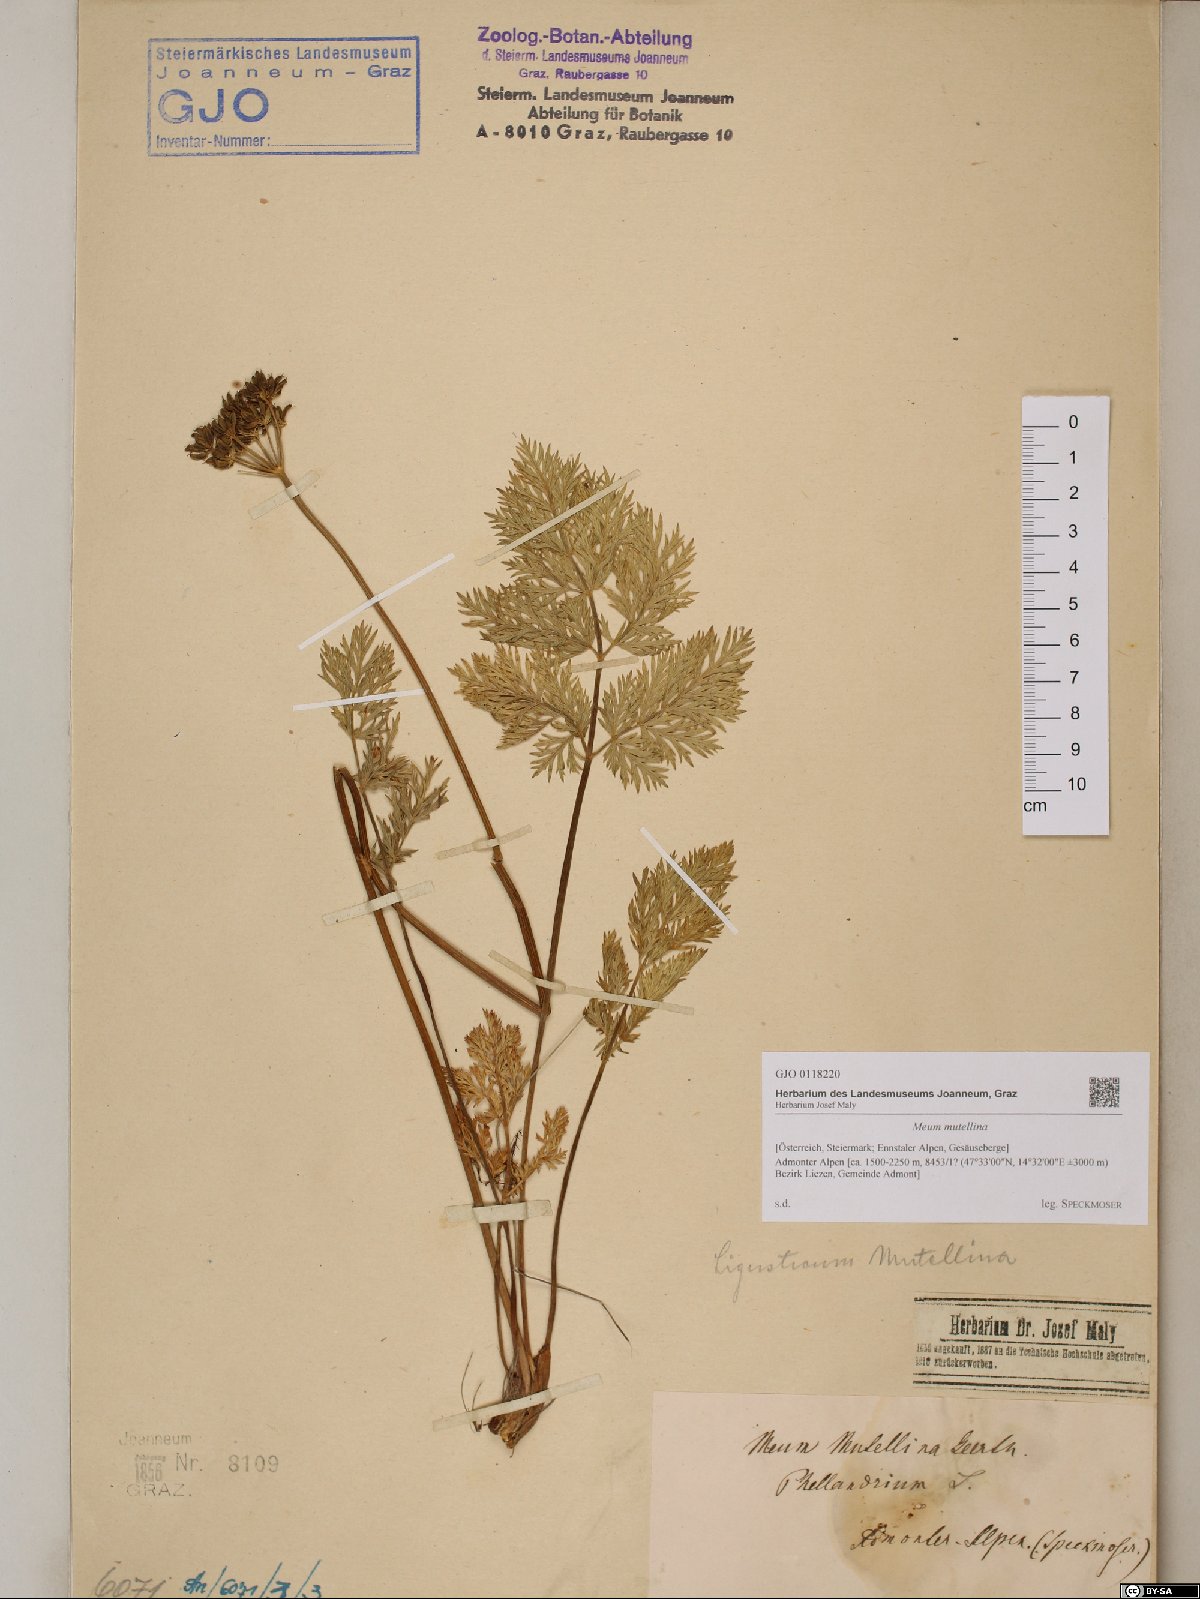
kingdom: Plantae
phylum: Tracheophyta
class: Magnoliopsida
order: Apiales
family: Apiaceae
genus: Mutellina
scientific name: Mutellina adonidifolia
